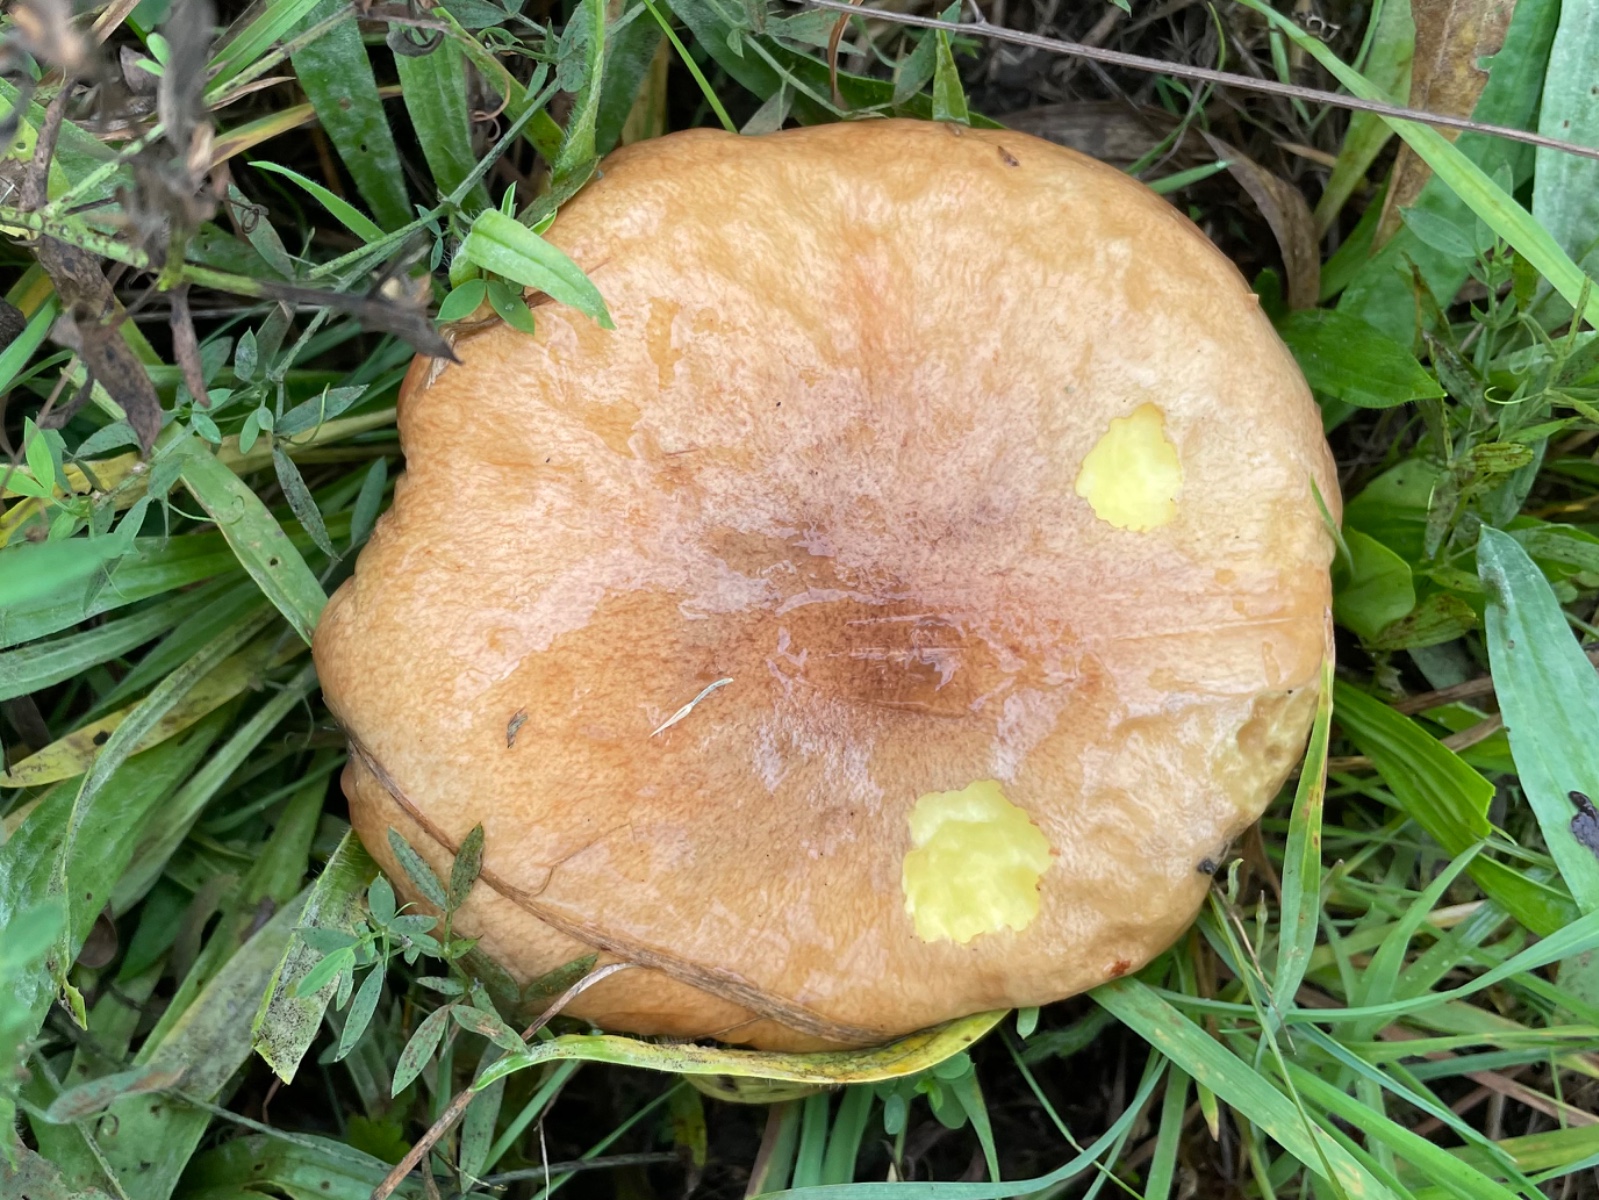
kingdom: Fungi
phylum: Basidiomycota
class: Agaricomycetes
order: Boletales
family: Suillaceae
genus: Suillus
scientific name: Suillus luteus
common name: brungul slimrørhat
